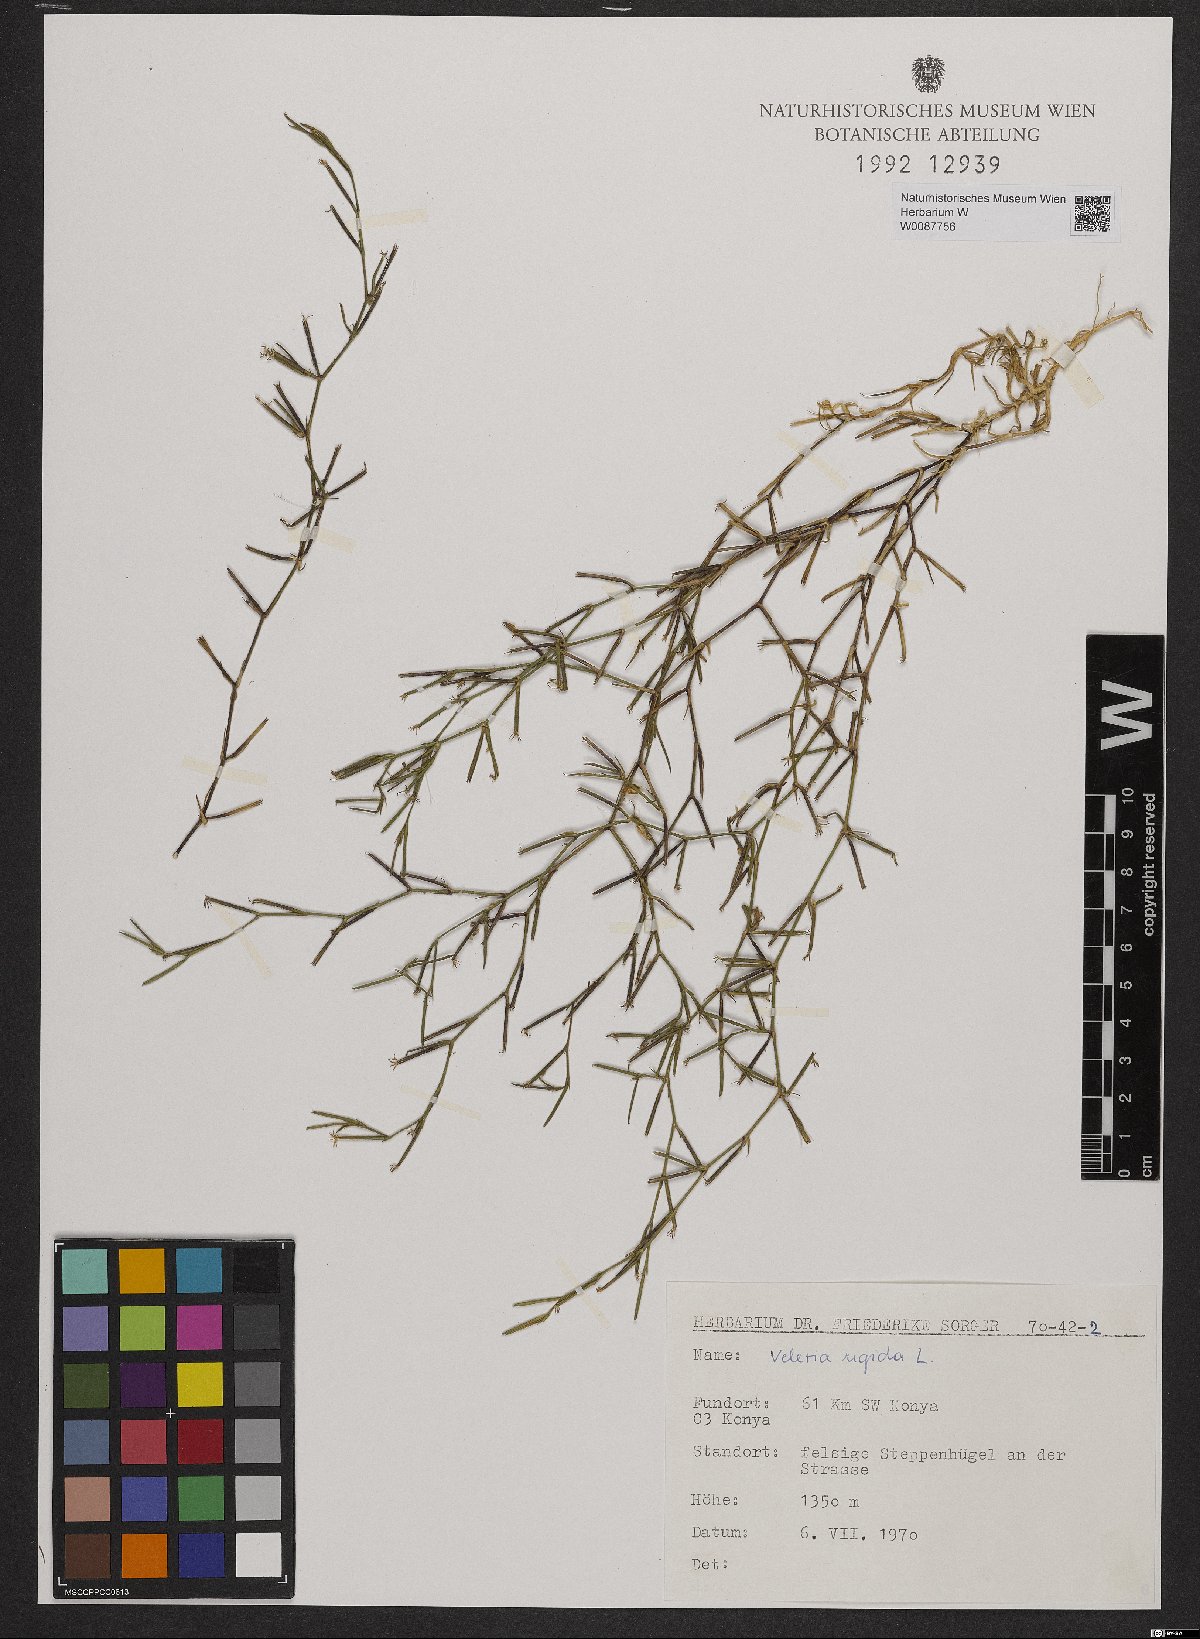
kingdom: Plantae
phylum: Tracheophyta
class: Magnoliopsida
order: Caryophyllales
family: Caryophyllaceae
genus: Dianthus
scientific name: Dianthus nudiflorus
